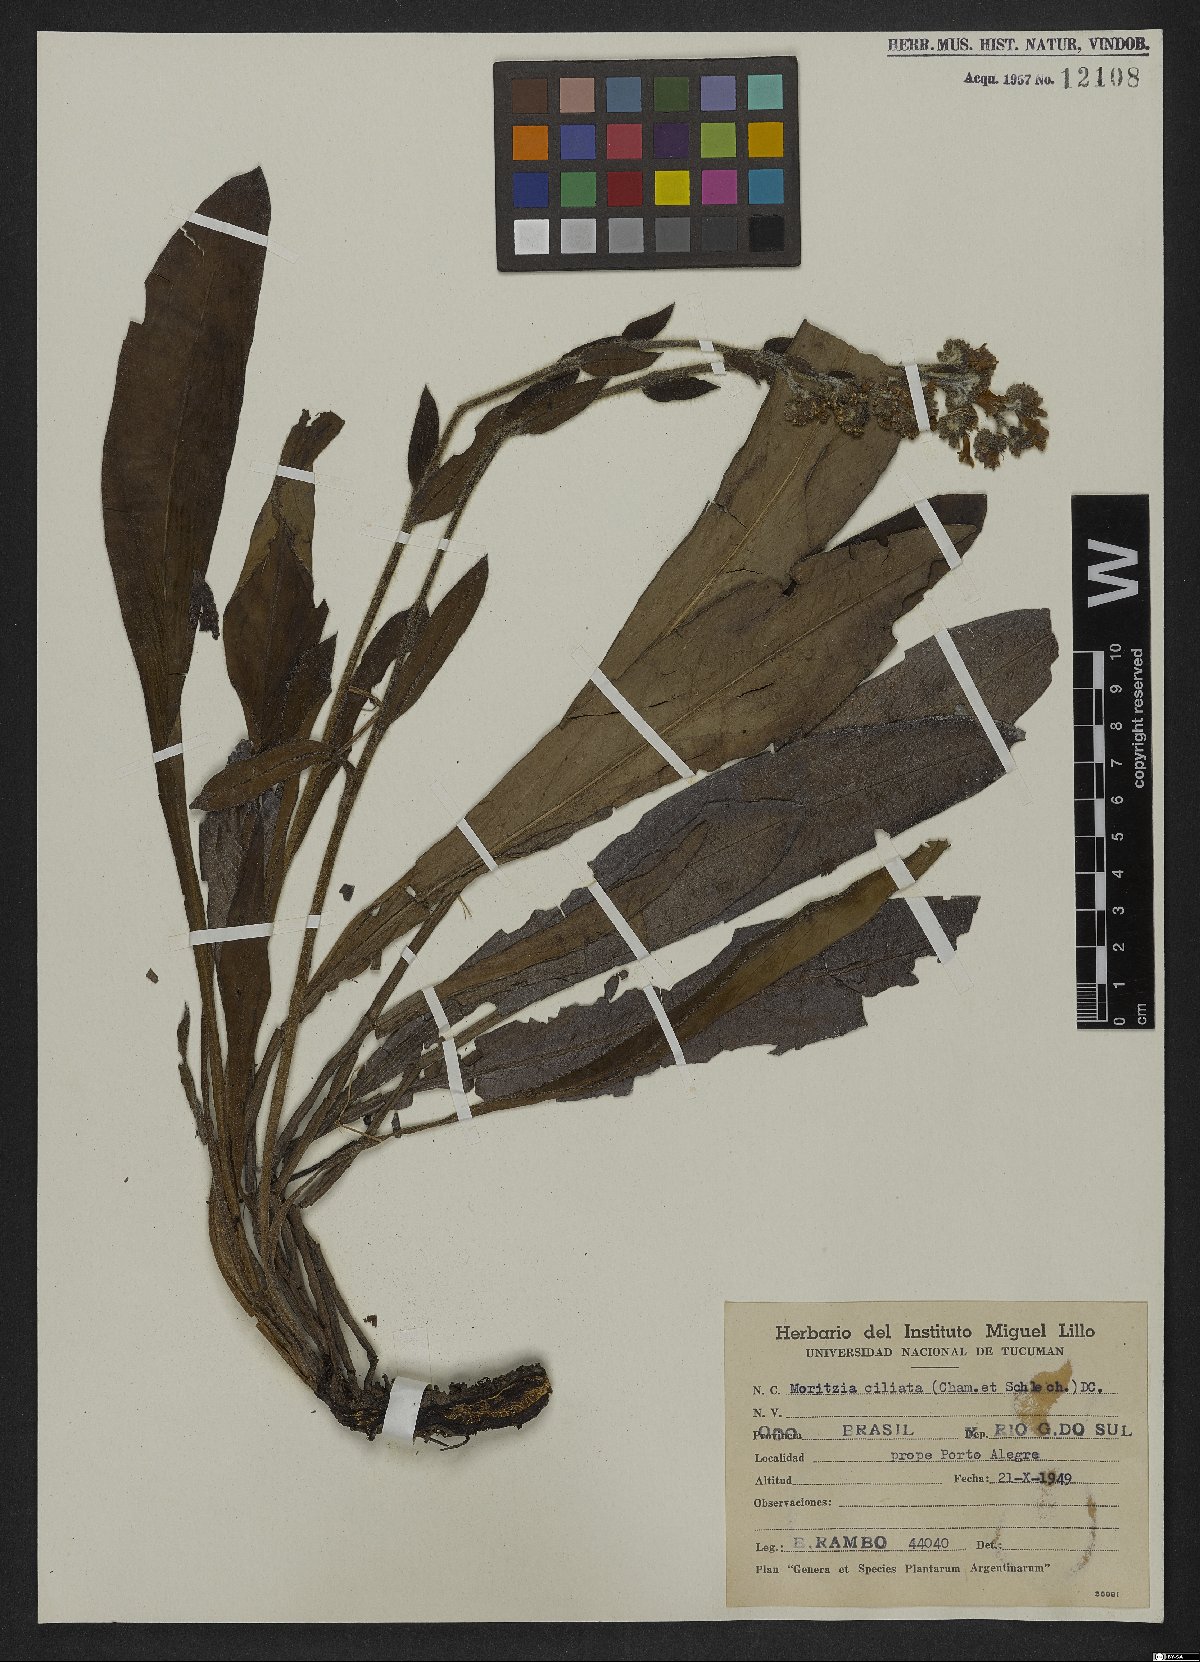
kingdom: Plantae
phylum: Tracheophyta
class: Magnoliopsida
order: Boraginales
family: Boraginaceae
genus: Moritzia
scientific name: Moritzia ciliata
